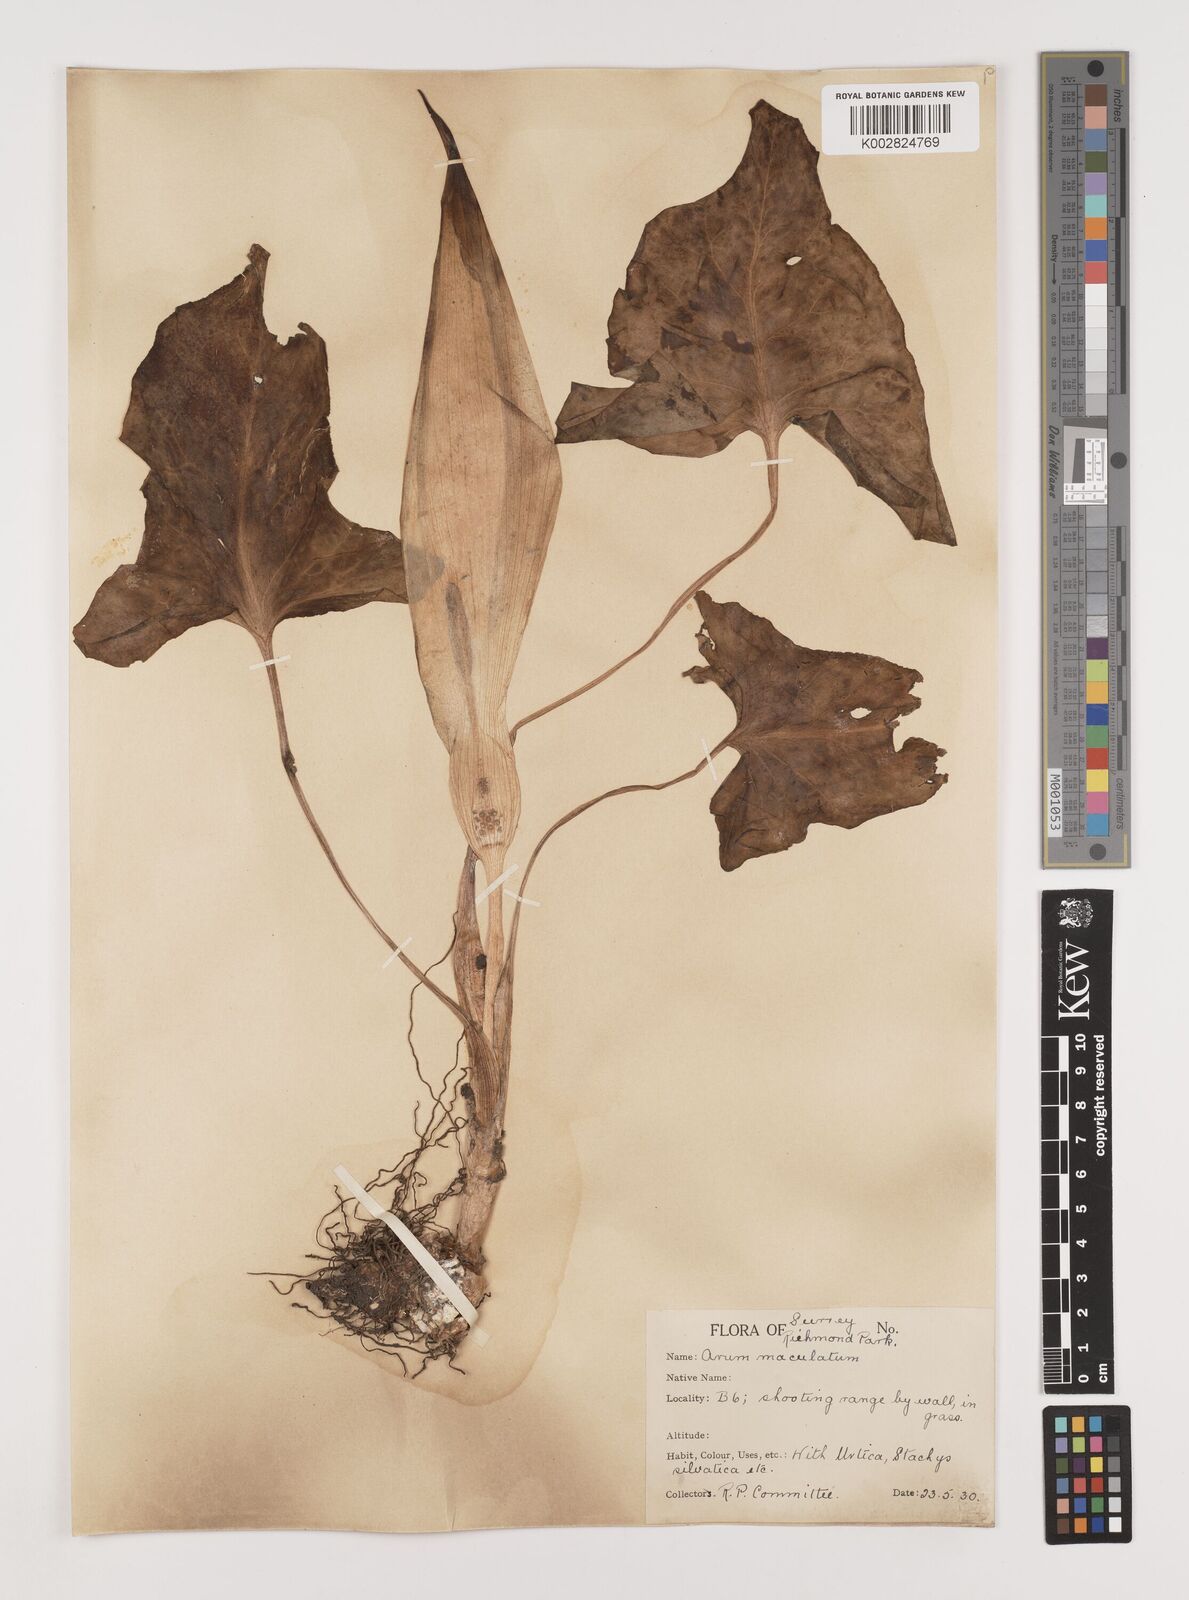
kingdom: Plantae
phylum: Tracheophyta
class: Liliopsida
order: Alismatales
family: Araceae
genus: Arum
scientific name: Arum maculatum
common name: Lords-and-ladies
